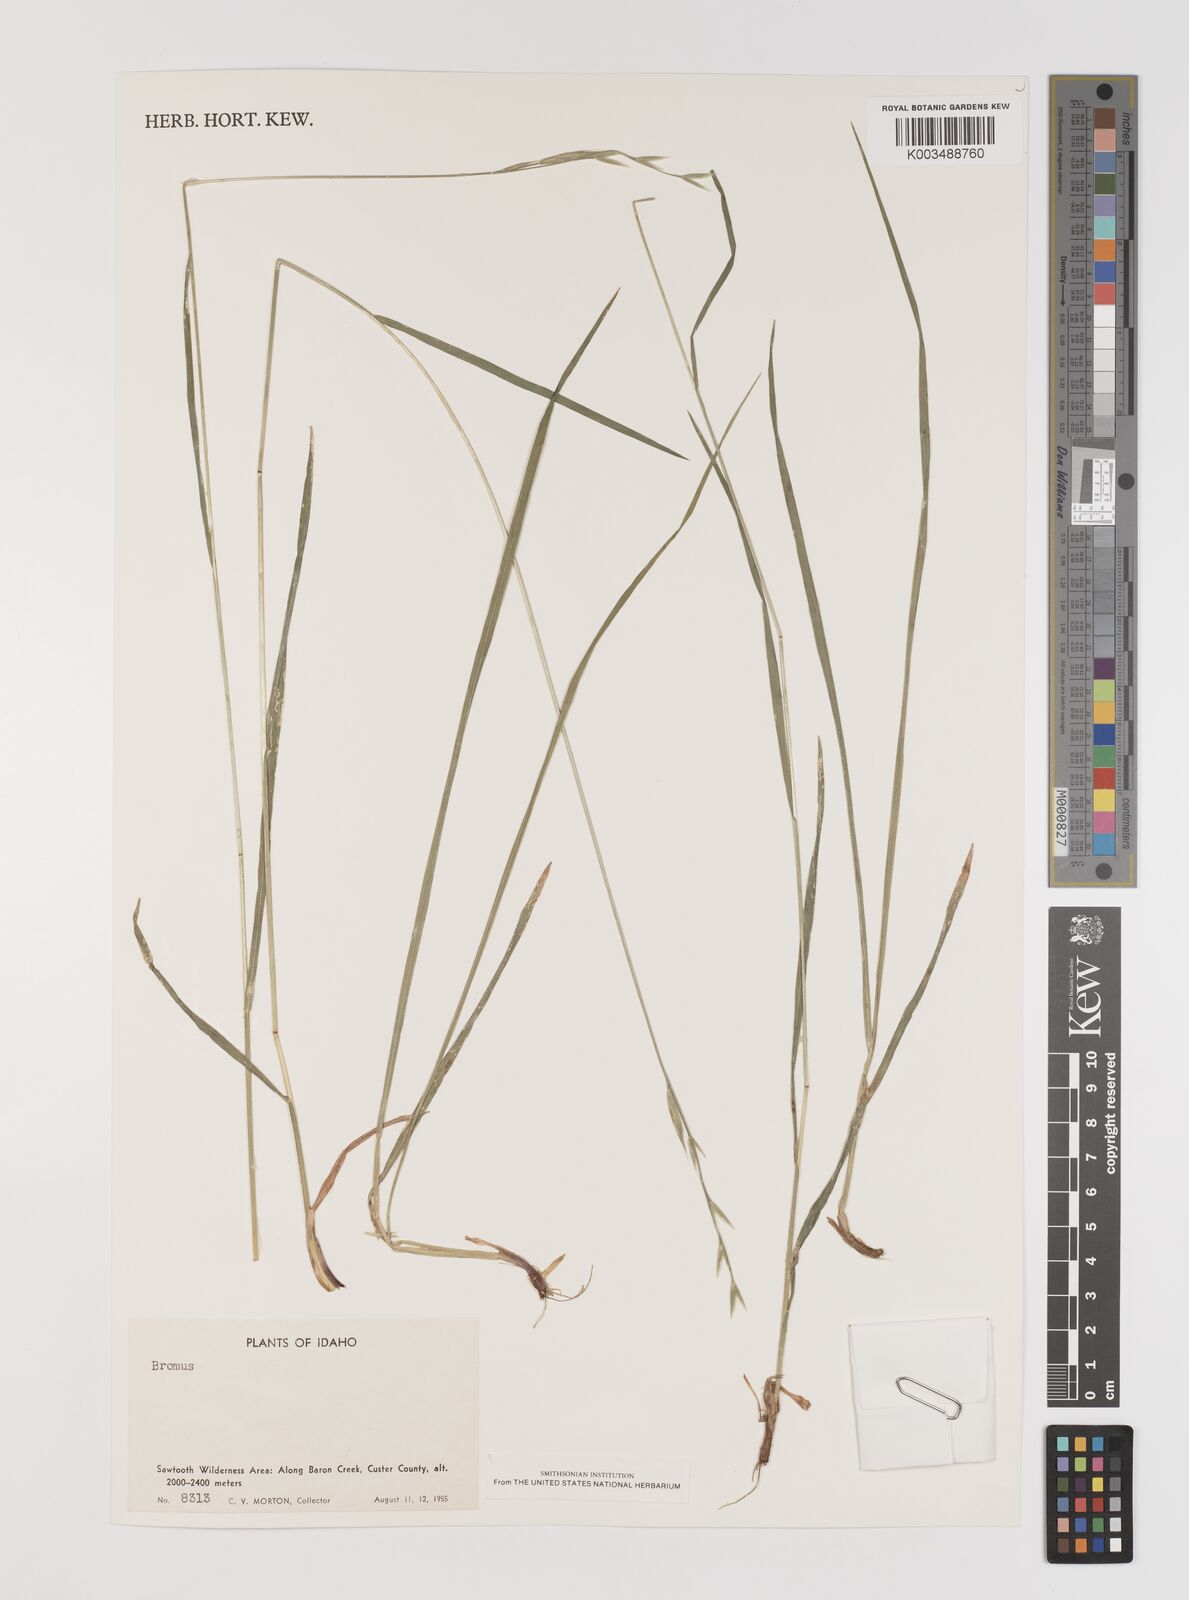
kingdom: Plantae
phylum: Tracheophyta
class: Liliopsida
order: Poales
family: Poaceae
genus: Bromus
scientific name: Bromus
